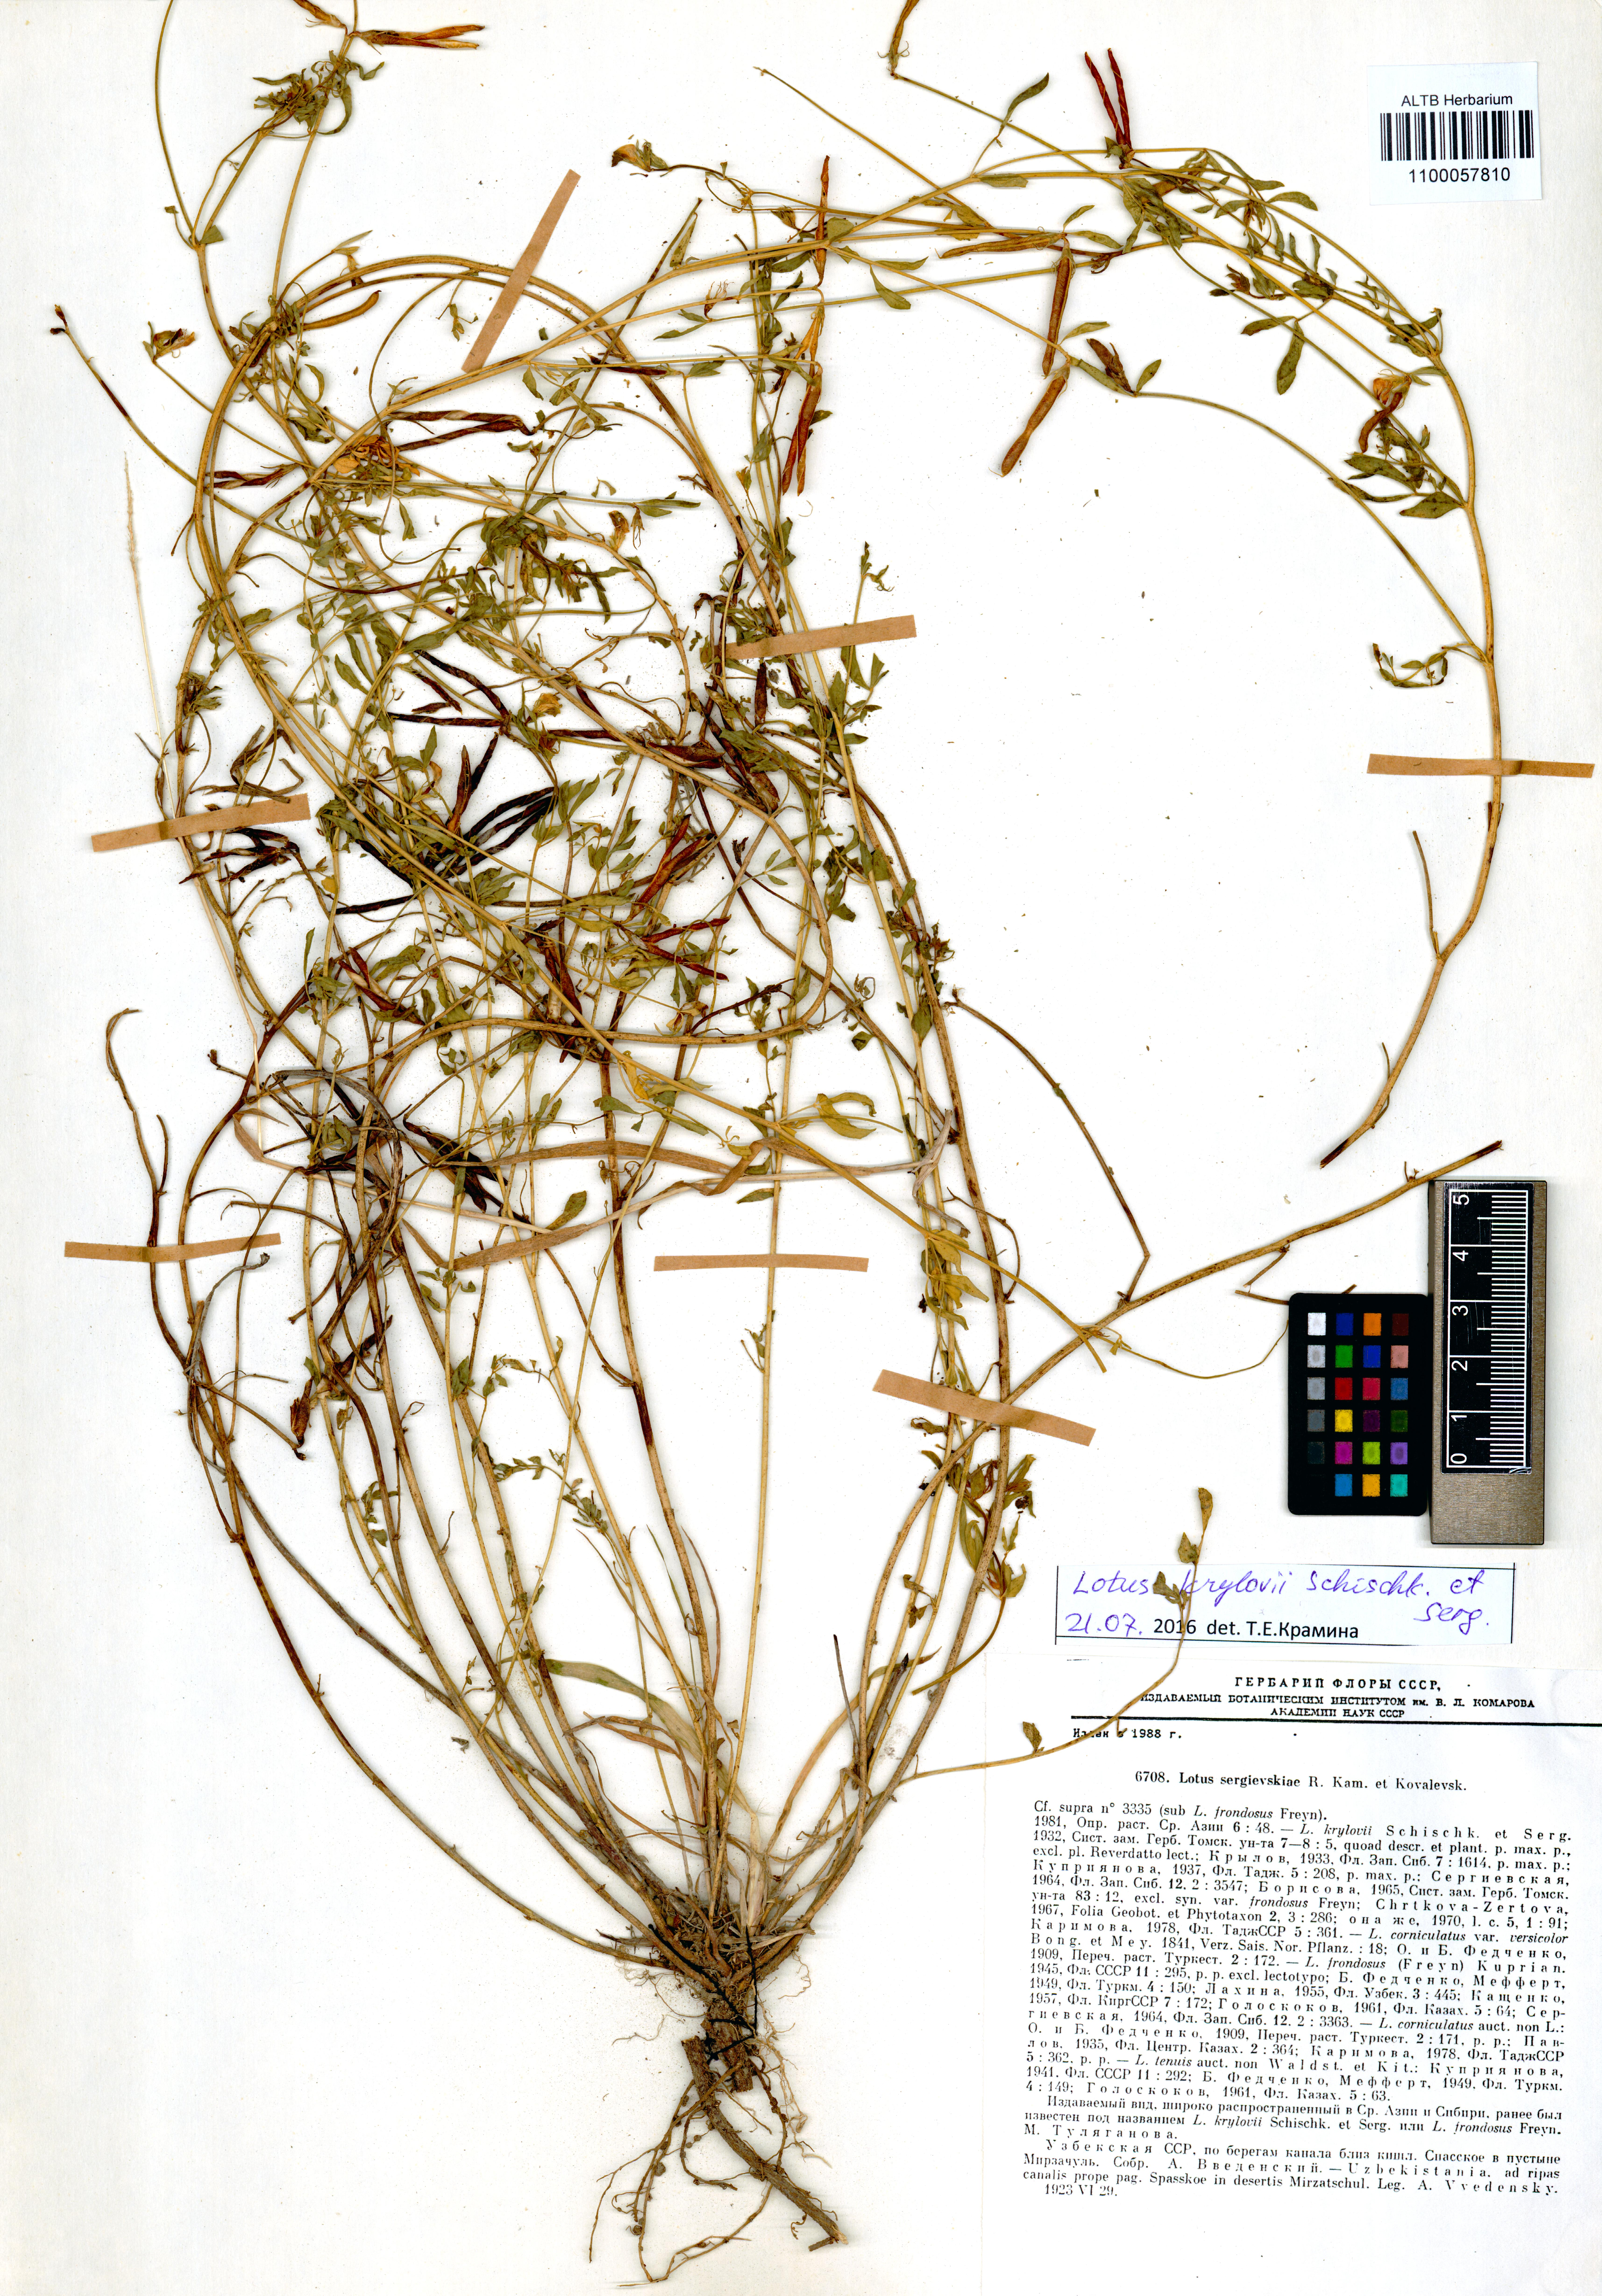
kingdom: Plantae
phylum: Tracheophyta
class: Magnoliopsida
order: Fabales
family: Fabaceae
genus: Lotus
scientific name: Lotus krylovii
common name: Krylov's bird's-foot trefoil
